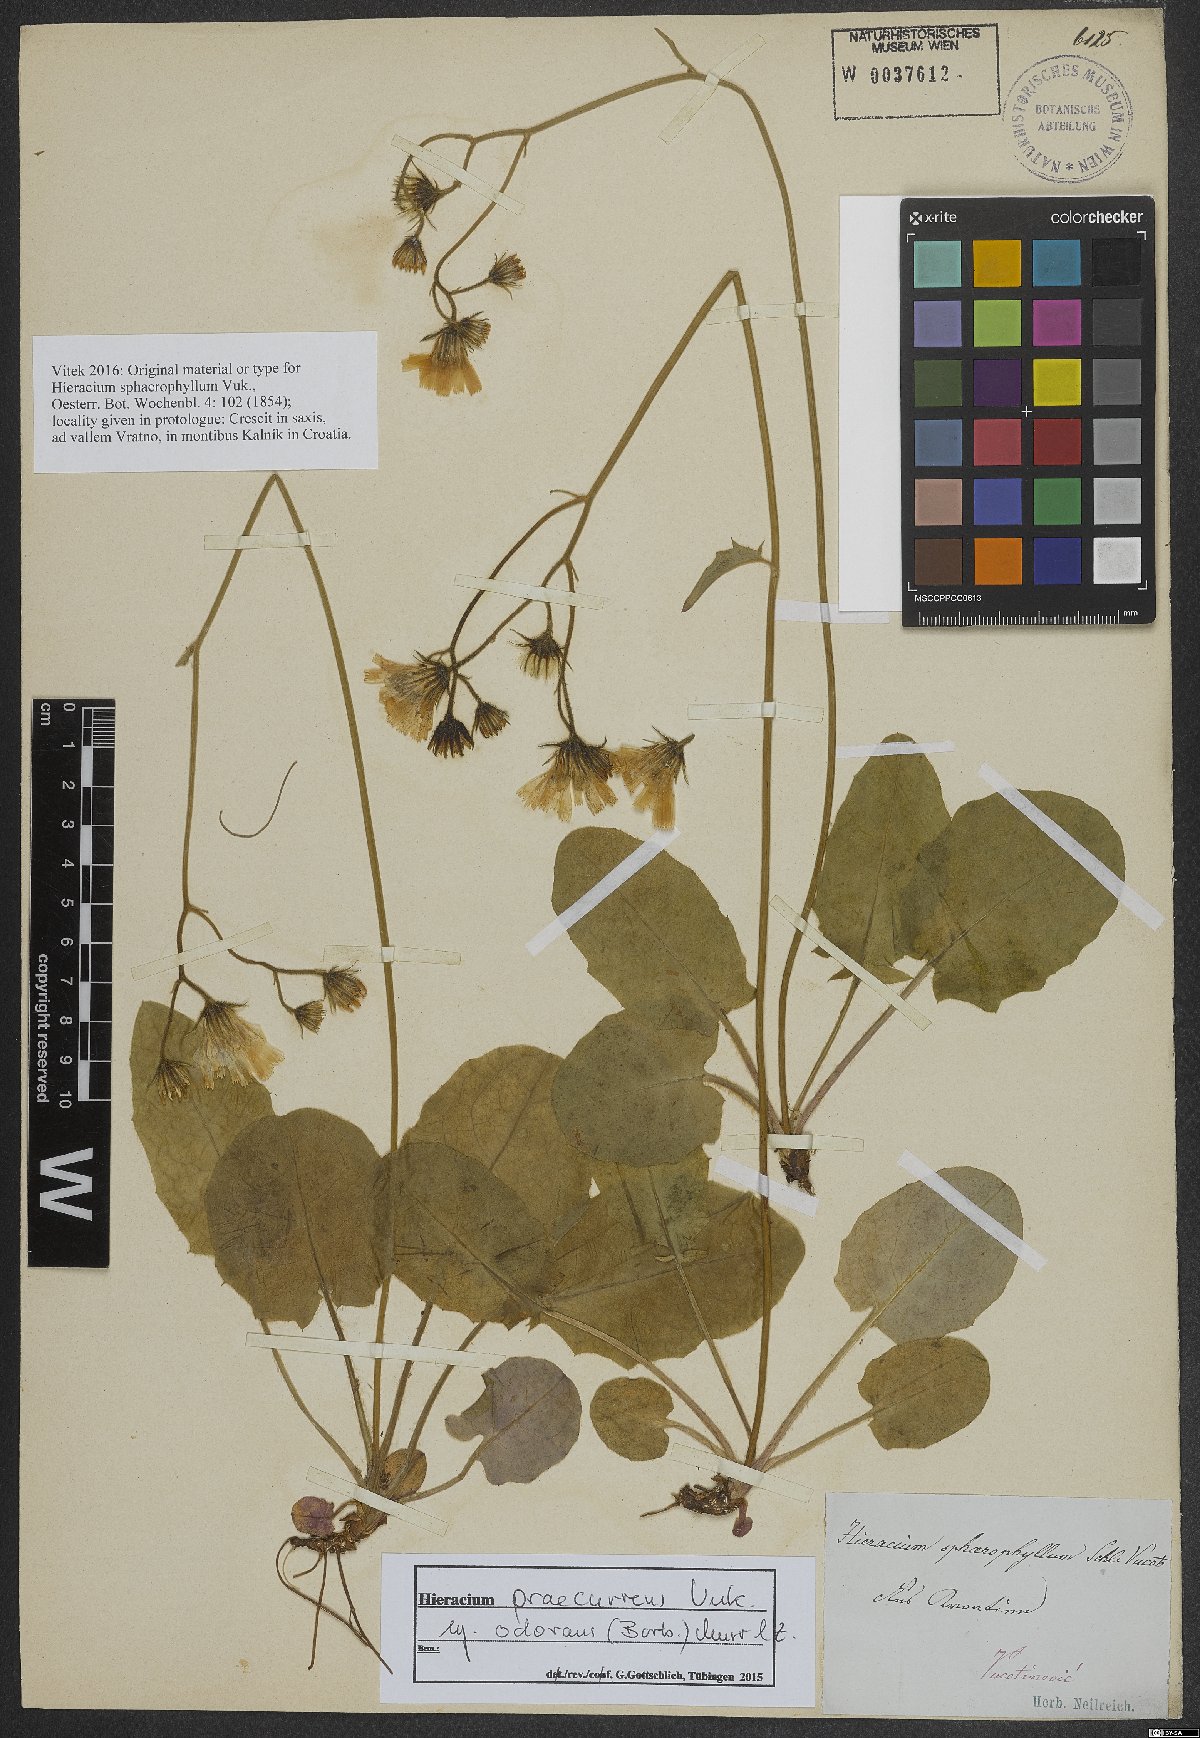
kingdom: Plantae
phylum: Tracheophyta
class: Magnoliopsida
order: Asterales
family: Asteraceae
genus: Hieracium
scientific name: Hieracium rotundatum
